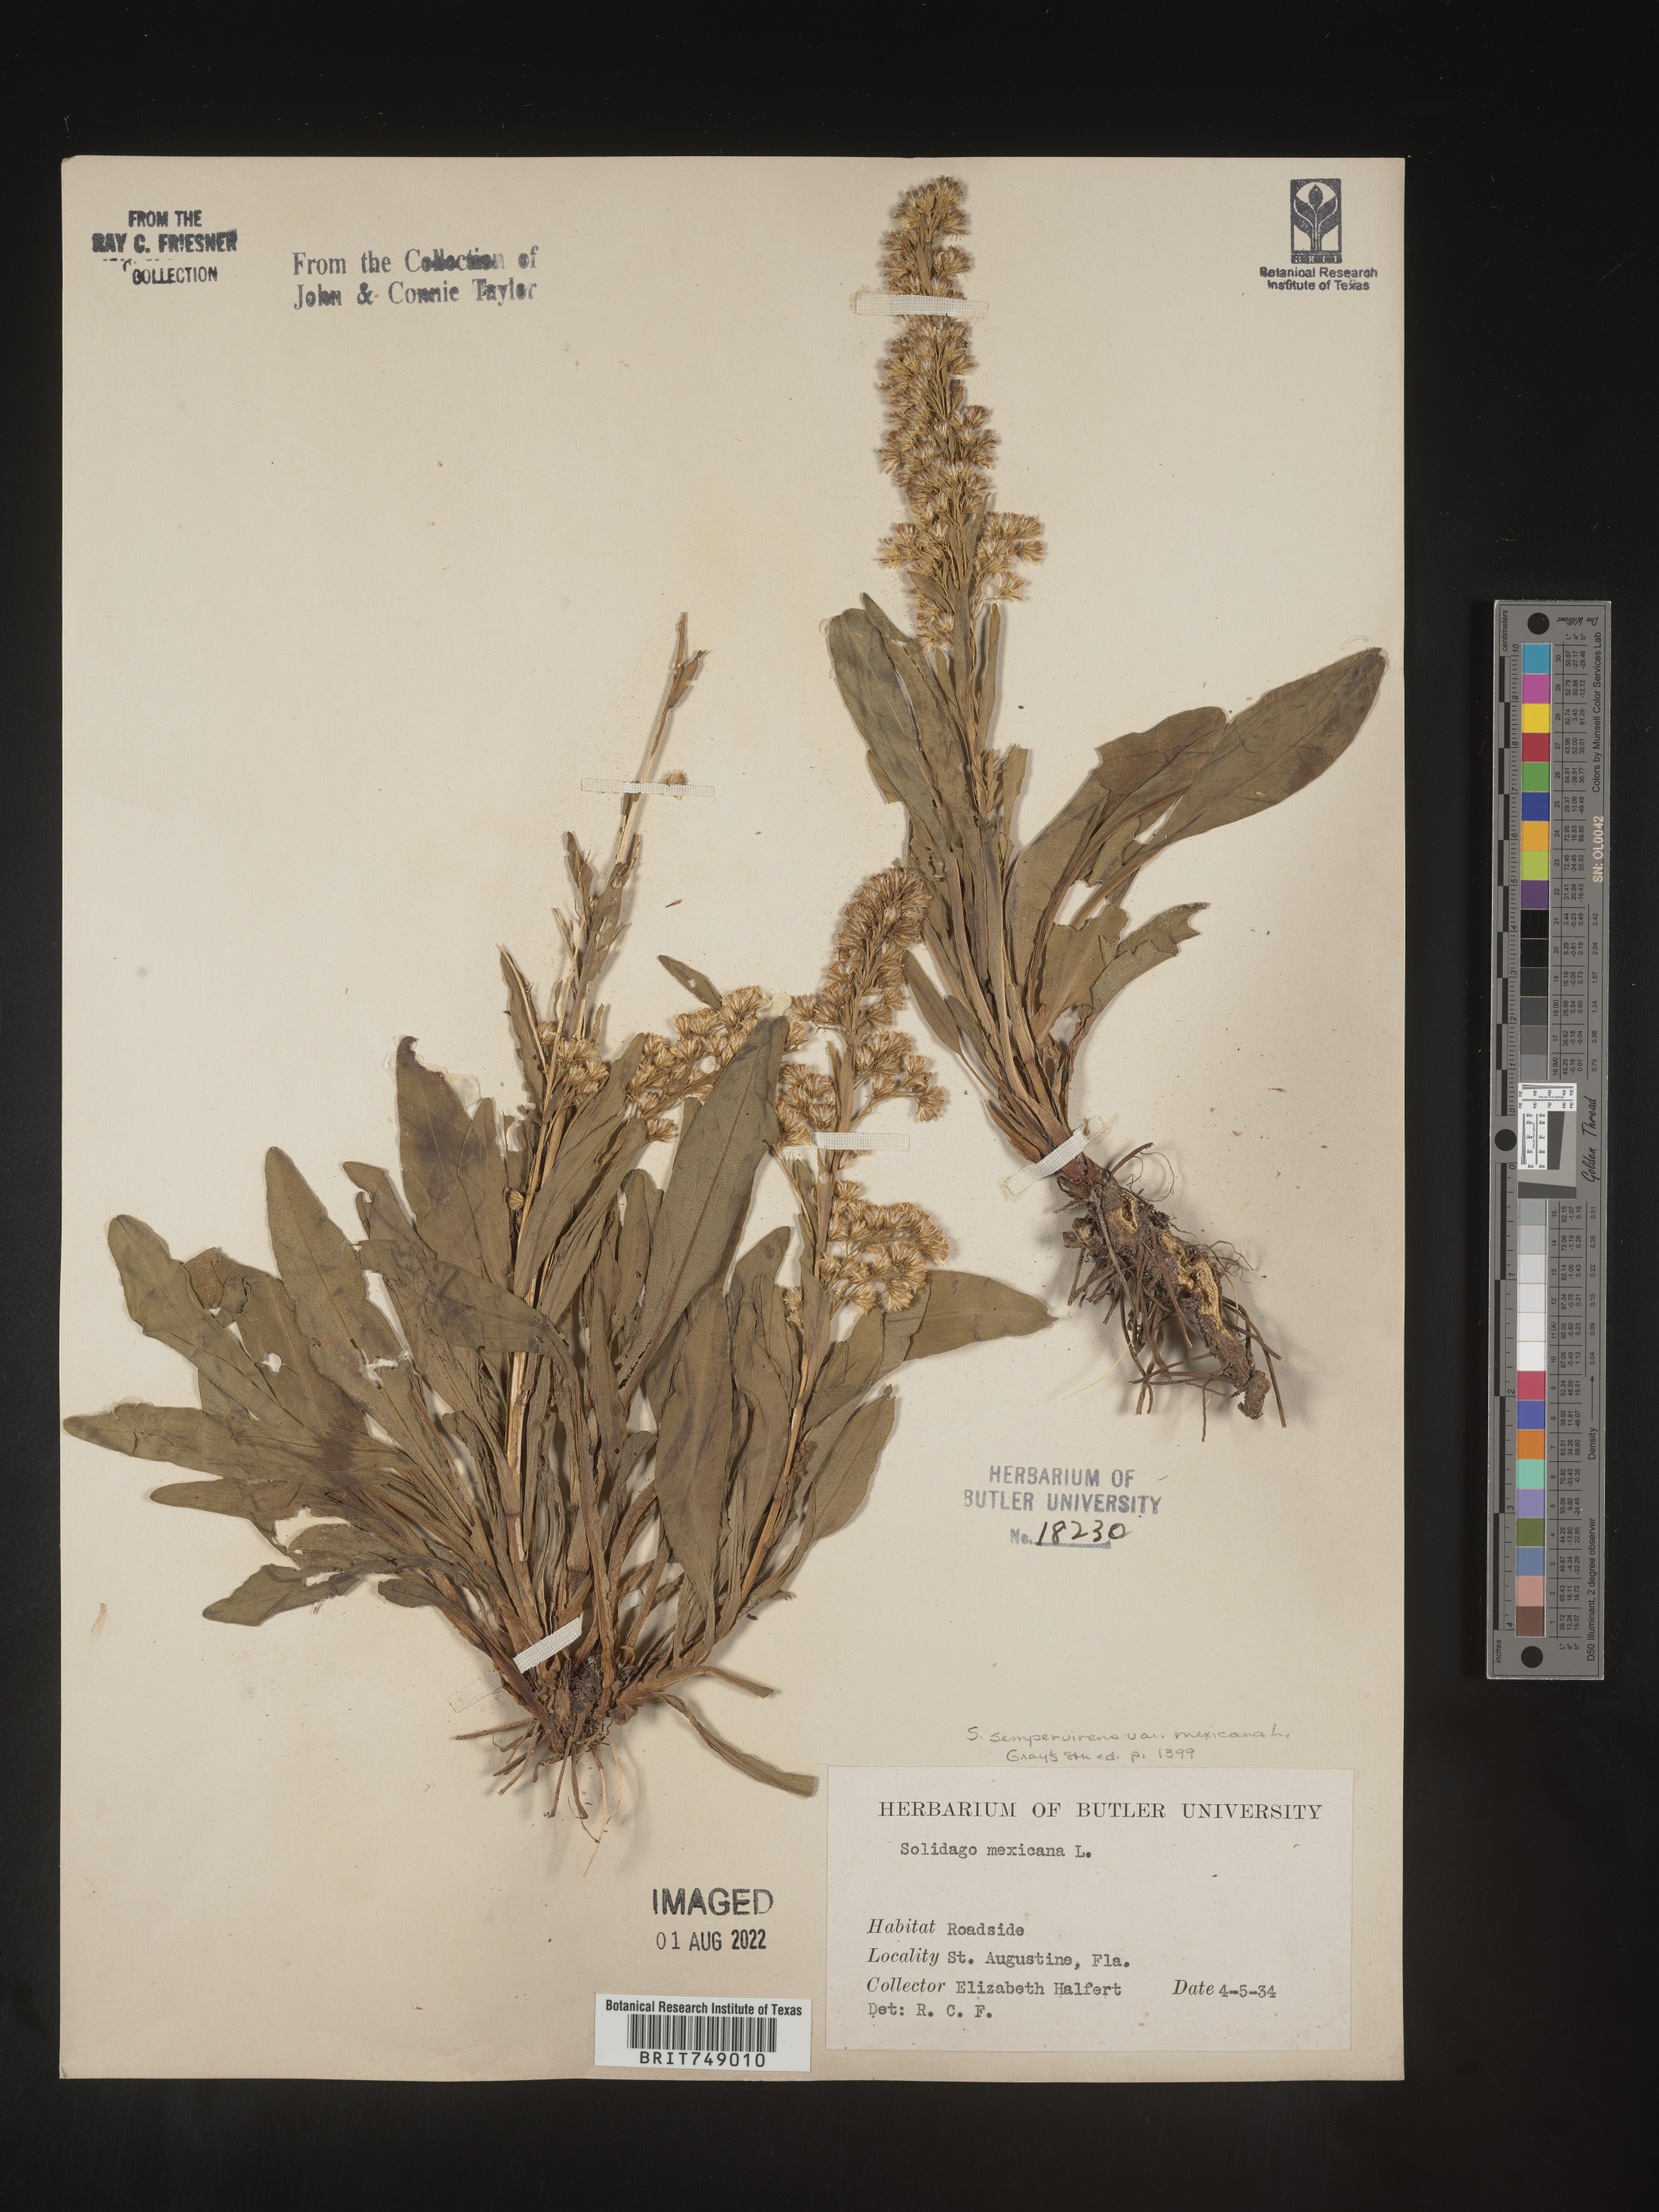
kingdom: Plantae
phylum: Tracheophyta
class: Magnoliopsida
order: Asterales
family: Asteraceae
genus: Solidago
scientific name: Solidago sempervirens
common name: Salt-marsh goldenrod
